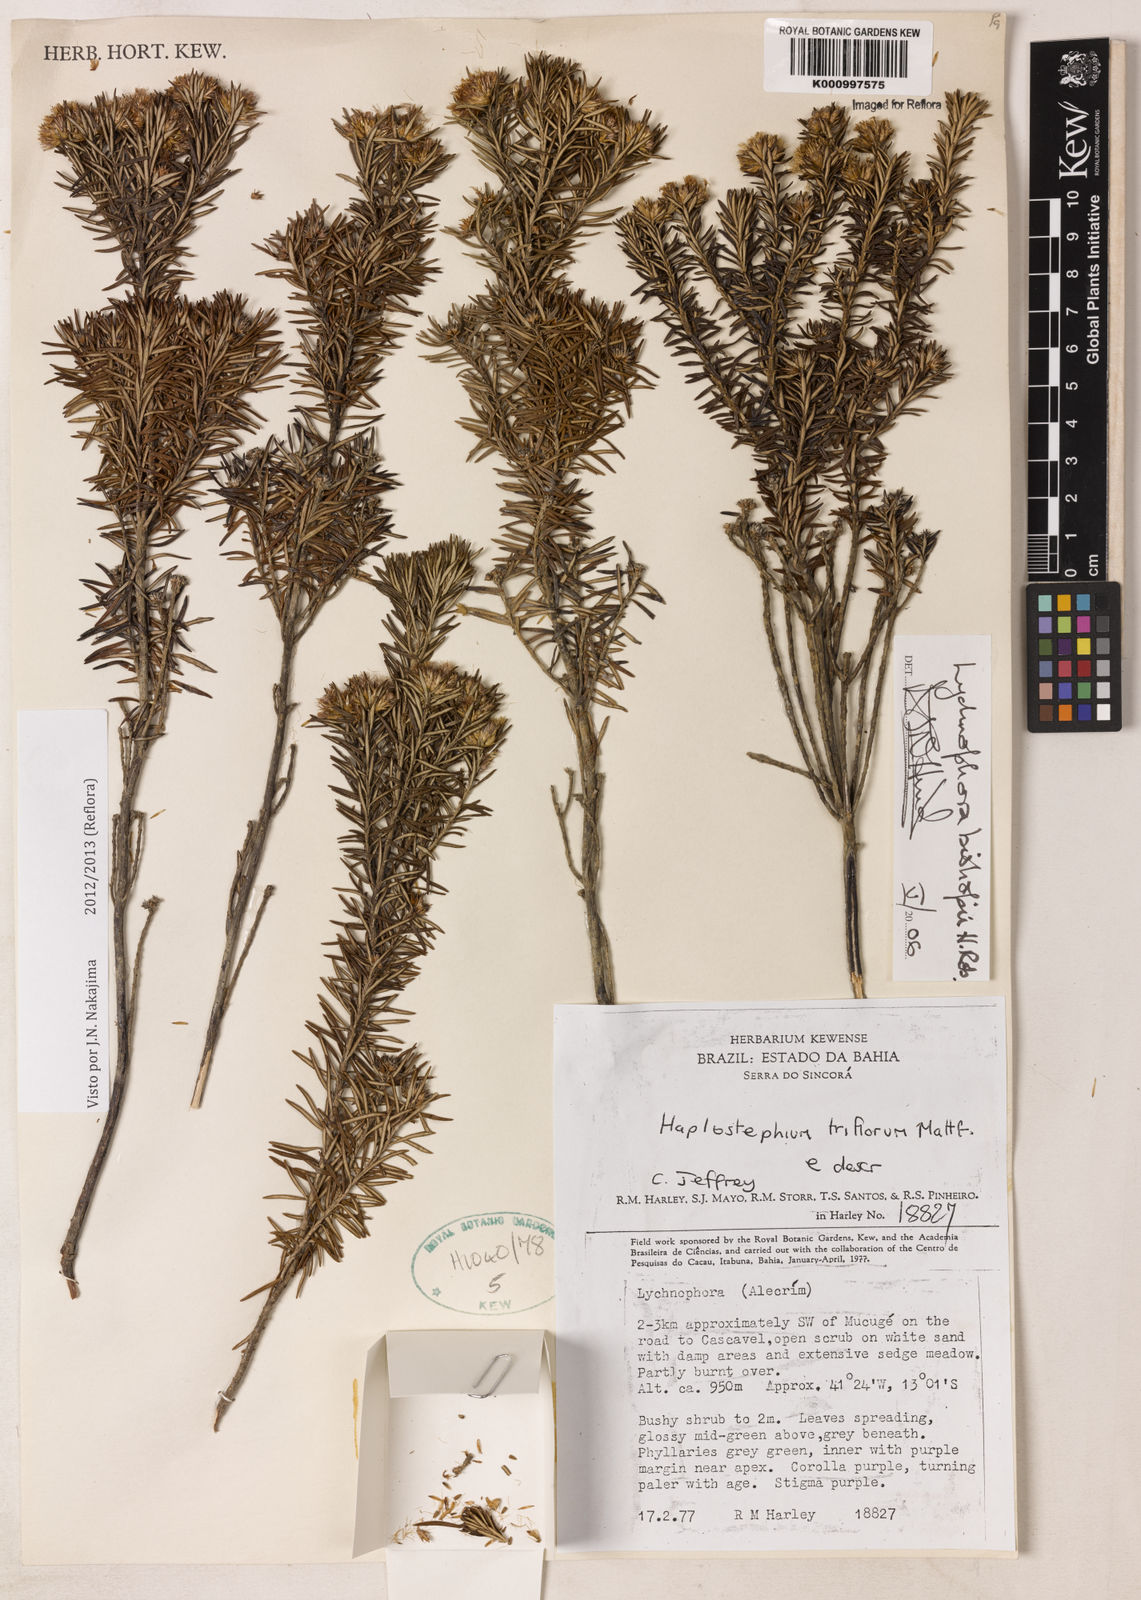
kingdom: Plantae
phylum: Tracheophyta
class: Magnoliopsida
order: Asterales
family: Asteraceae
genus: Lychnophorella
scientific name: Lychnophorella bishopii
